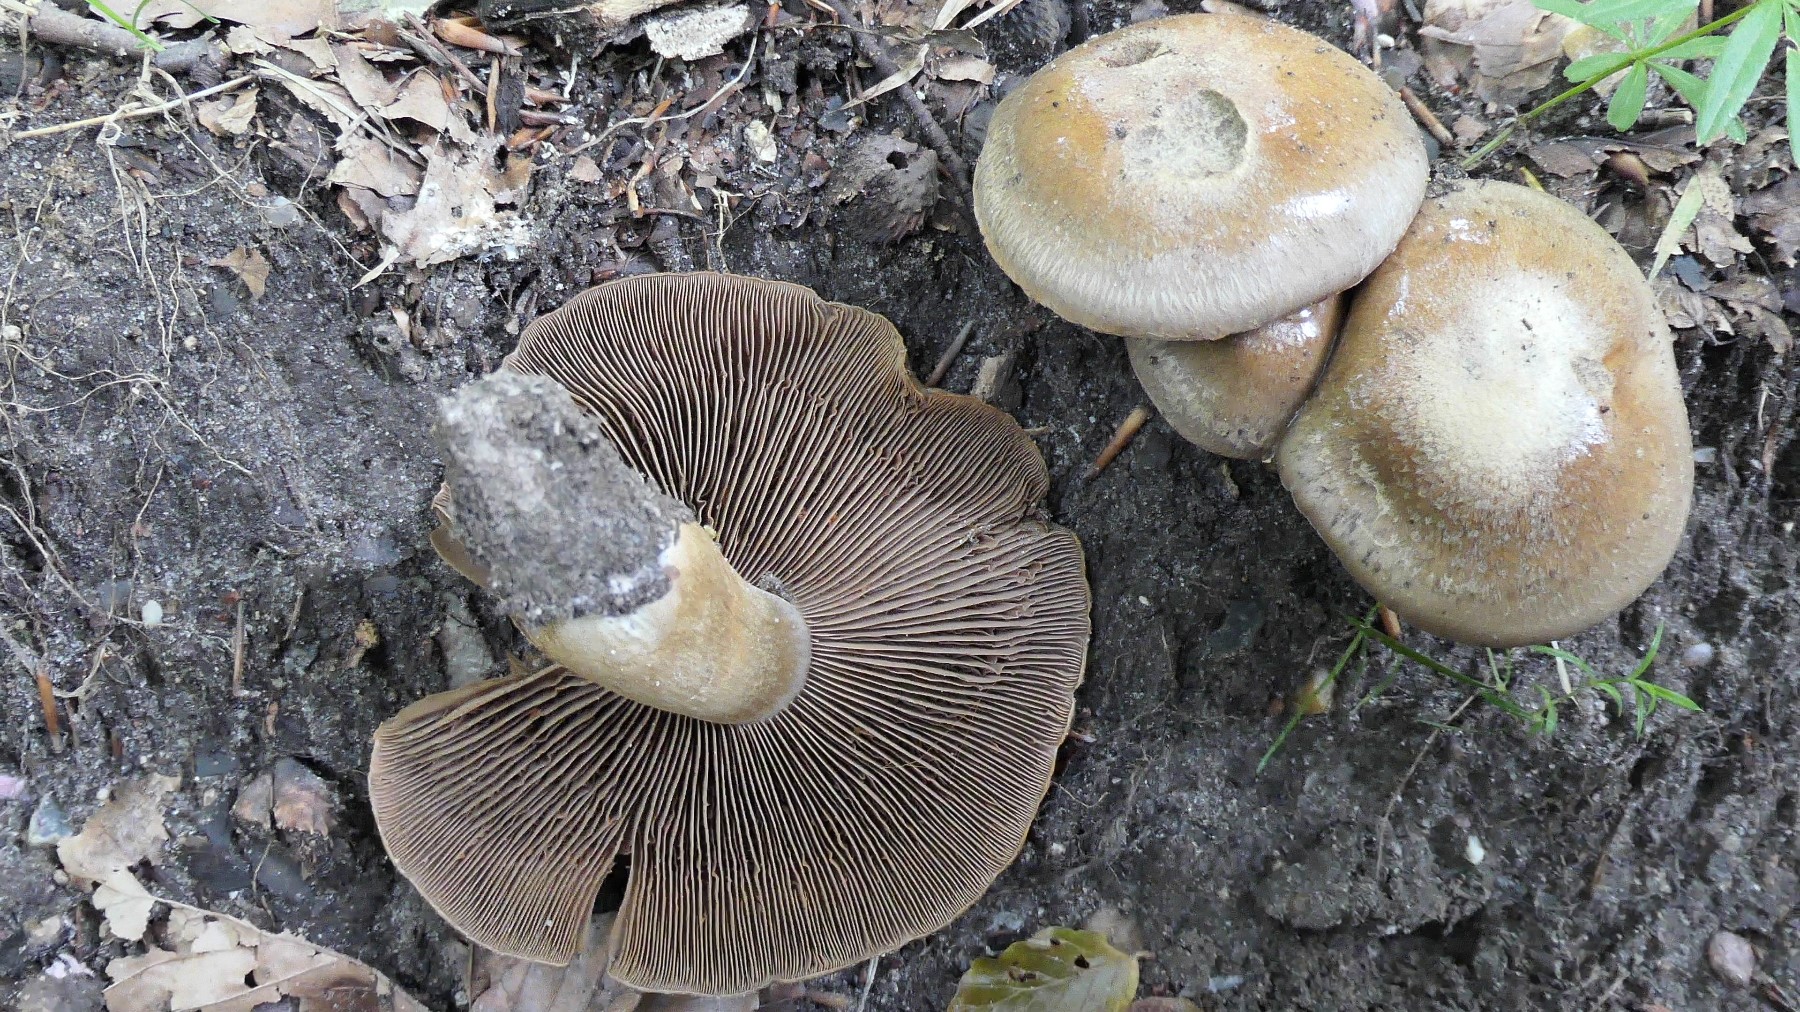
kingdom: Fungi
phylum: Basidiomycota
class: Agaricomycetes
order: Agaricales
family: Cortinariaceae
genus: Cortinarius
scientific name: Cortinarius
